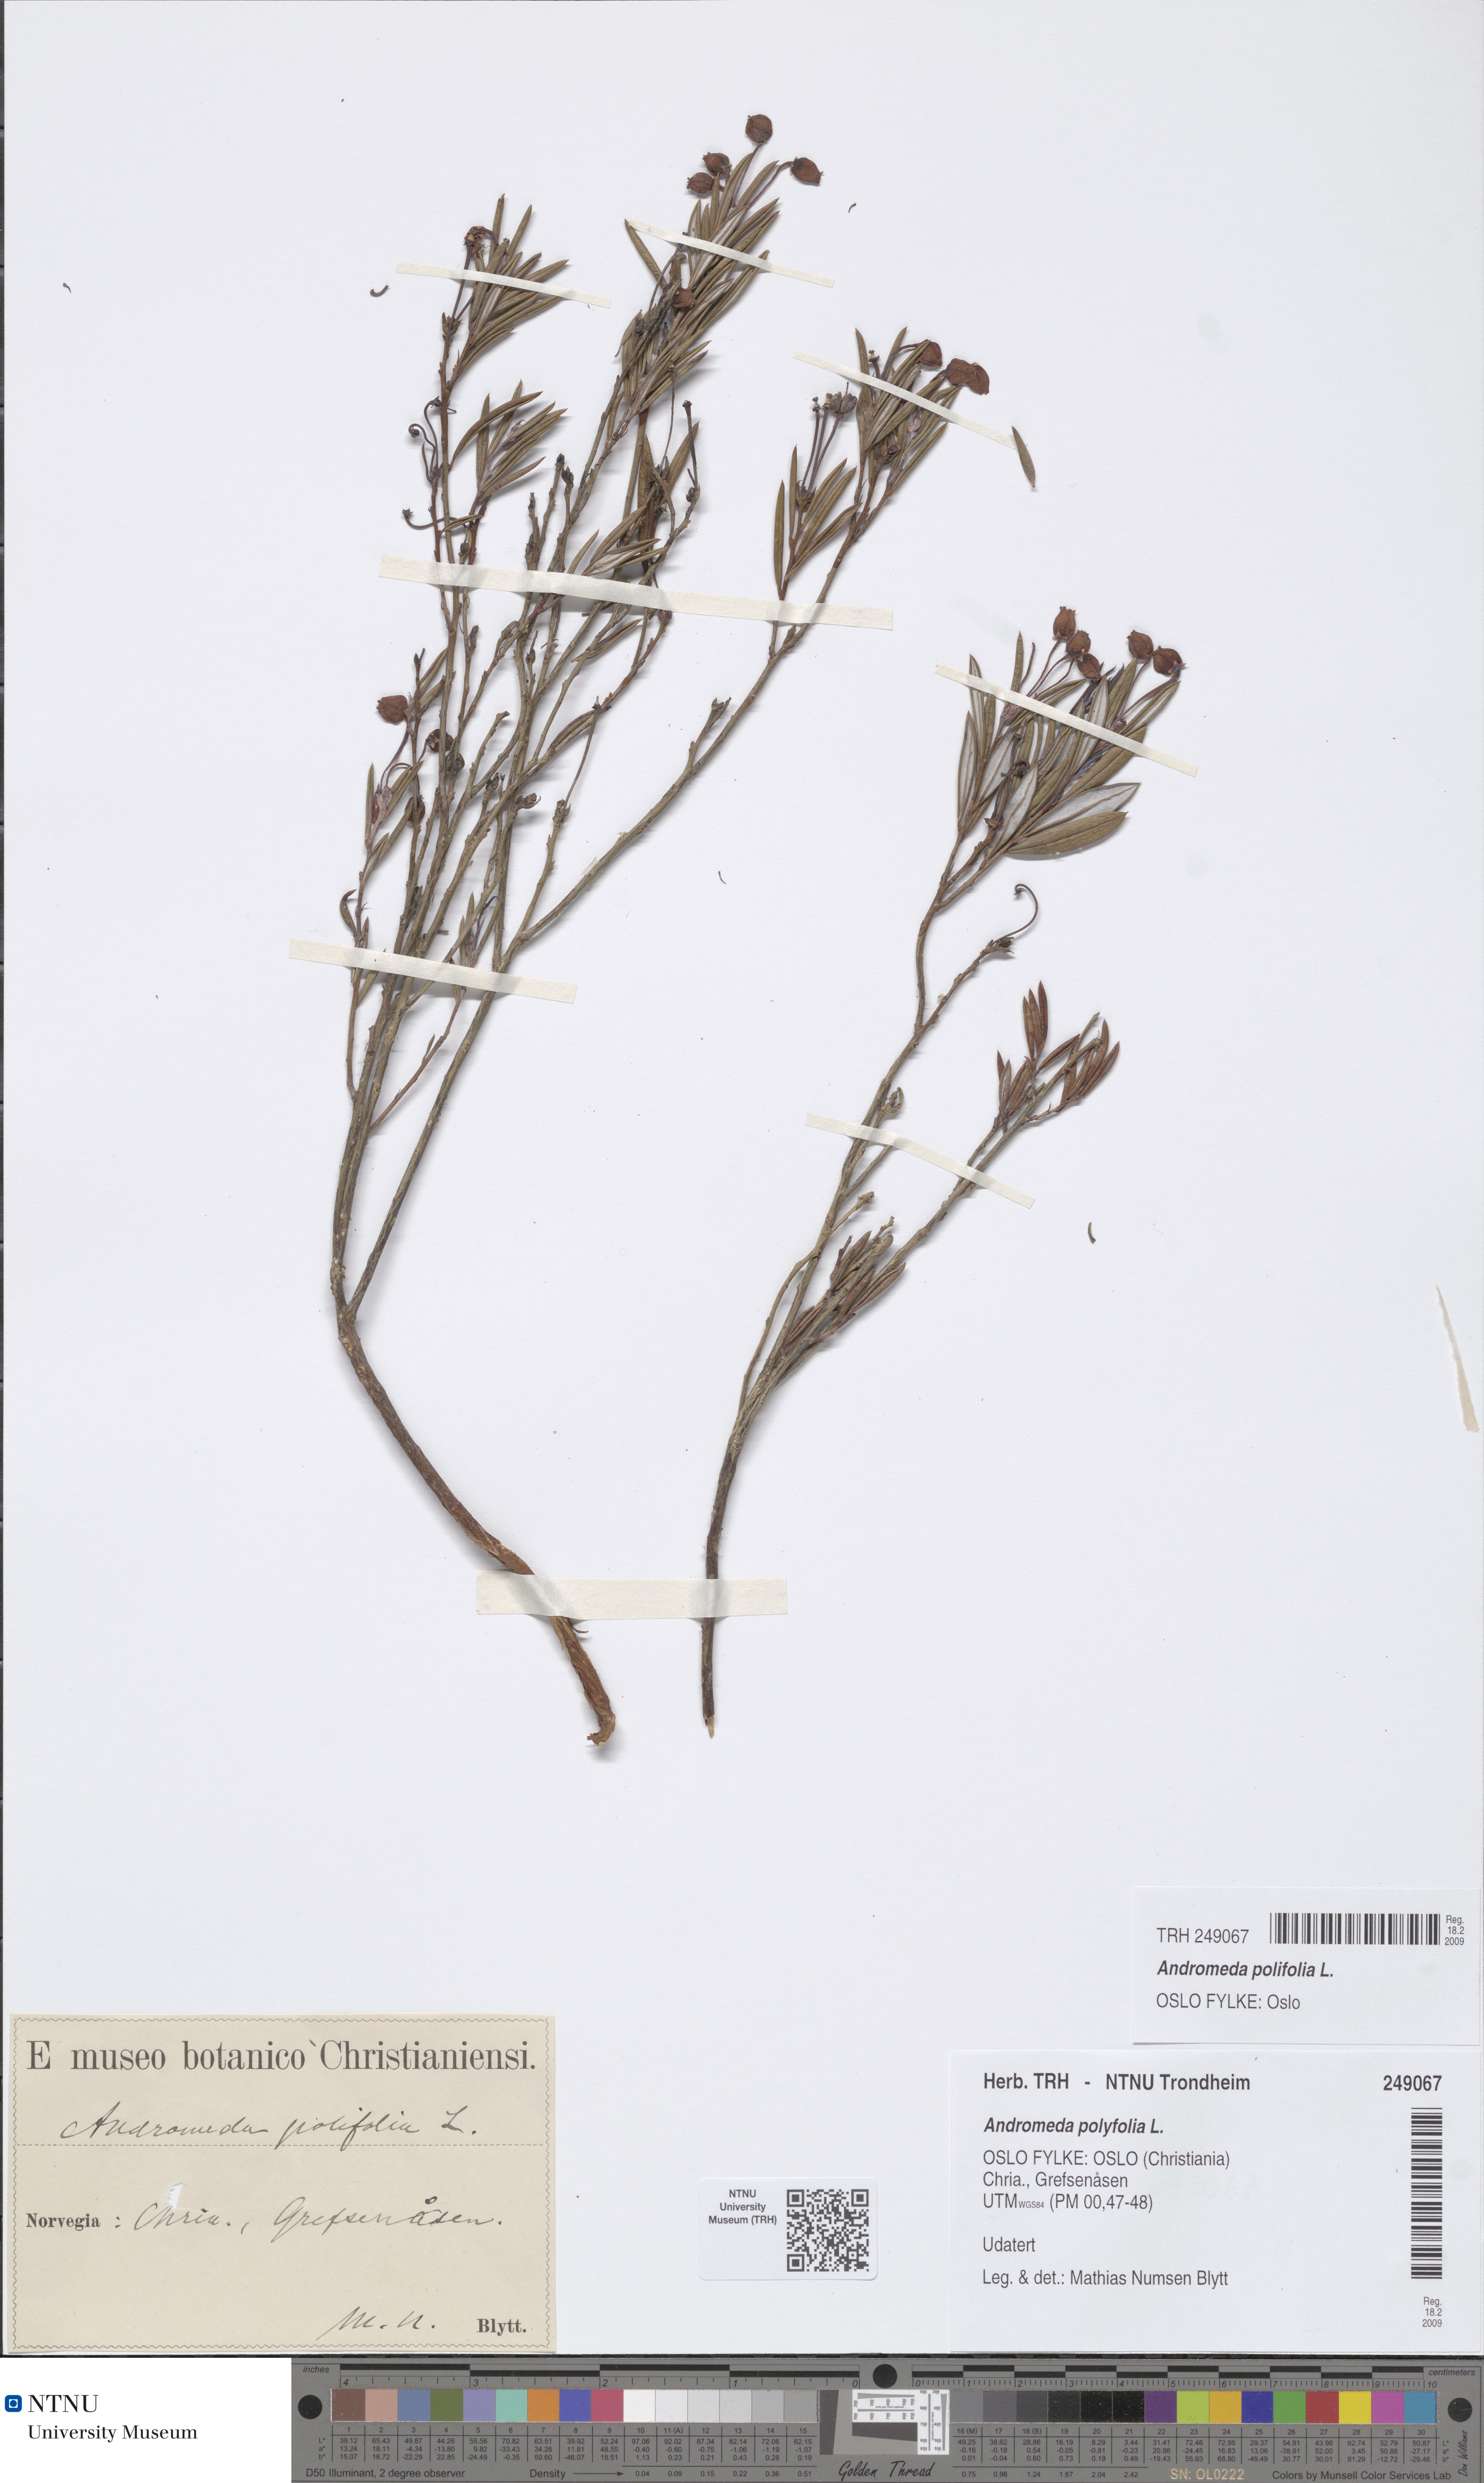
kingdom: Plantae
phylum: Tracheophyta
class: Magnoliopsida
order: Ericales
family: Ericaceae
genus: Andromeda
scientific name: Andromeda polifolia
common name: Bog-rosemary
